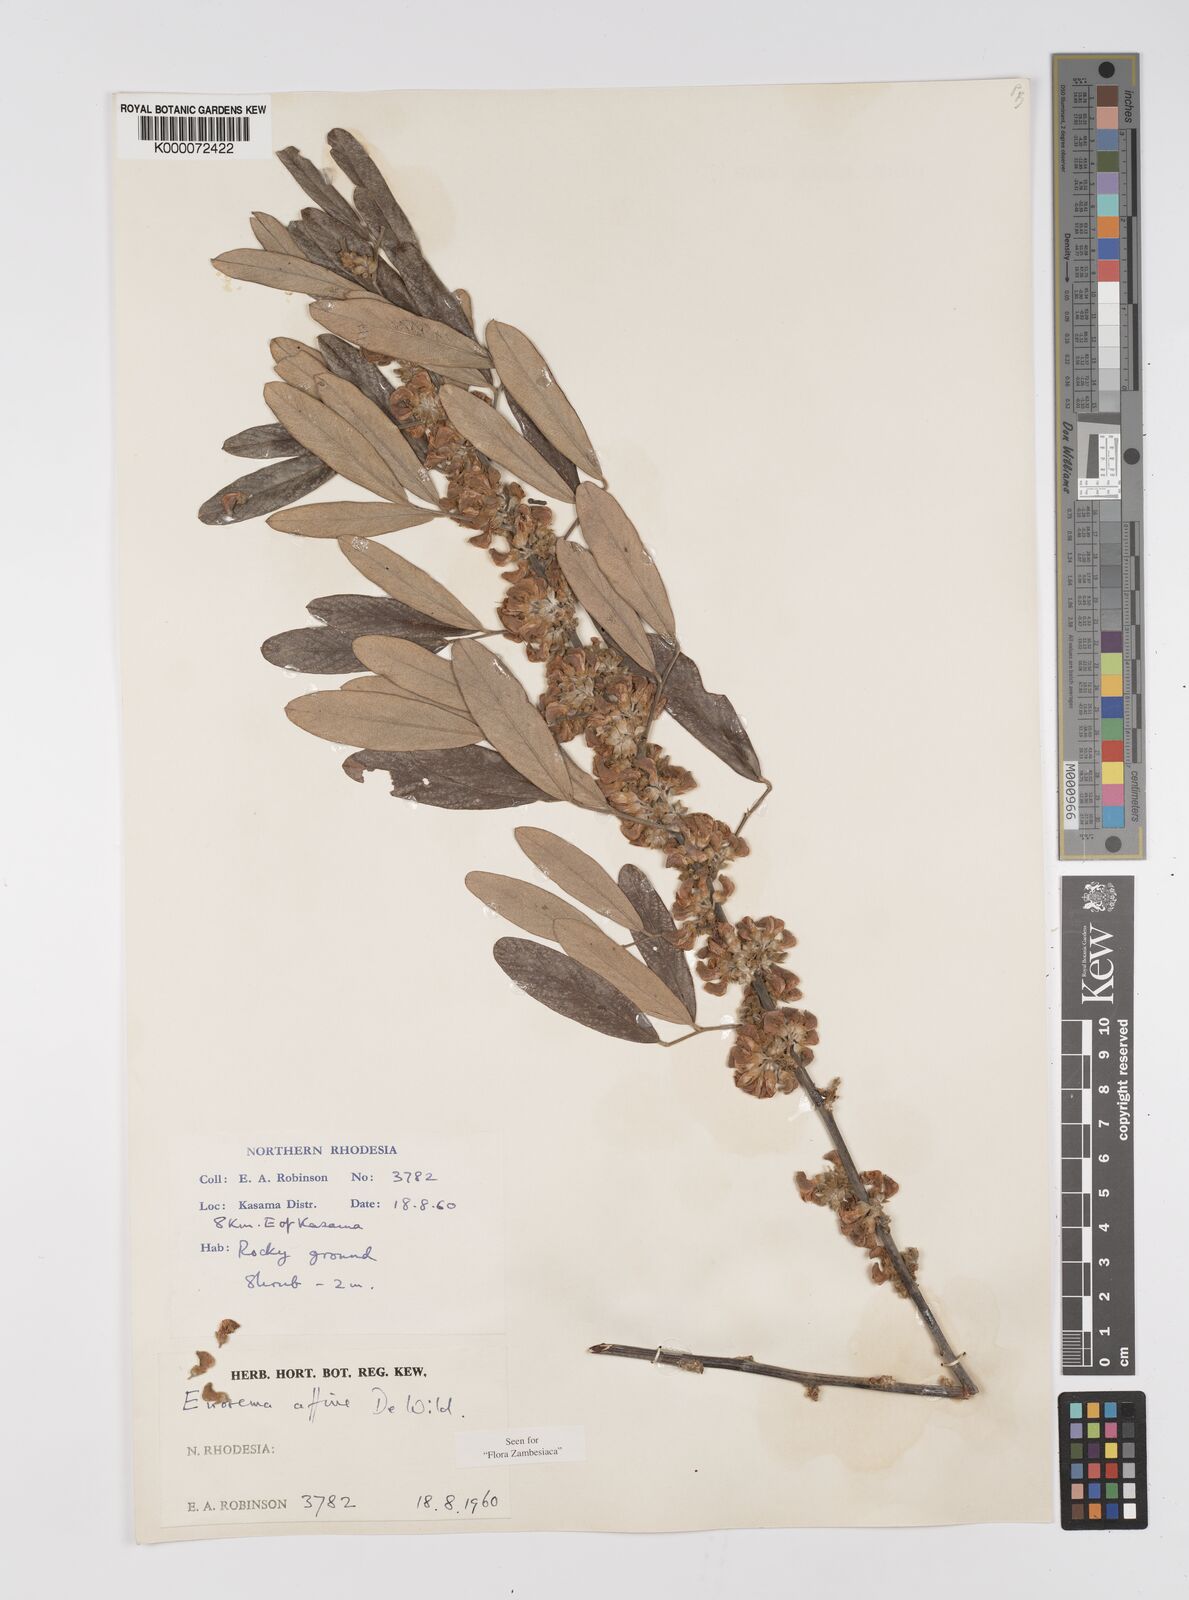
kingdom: Plantae
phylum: Tracheophyta
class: Magnoliopsida
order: Fabales
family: Fabaceae
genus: Eriosema
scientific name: Eriosema affine
